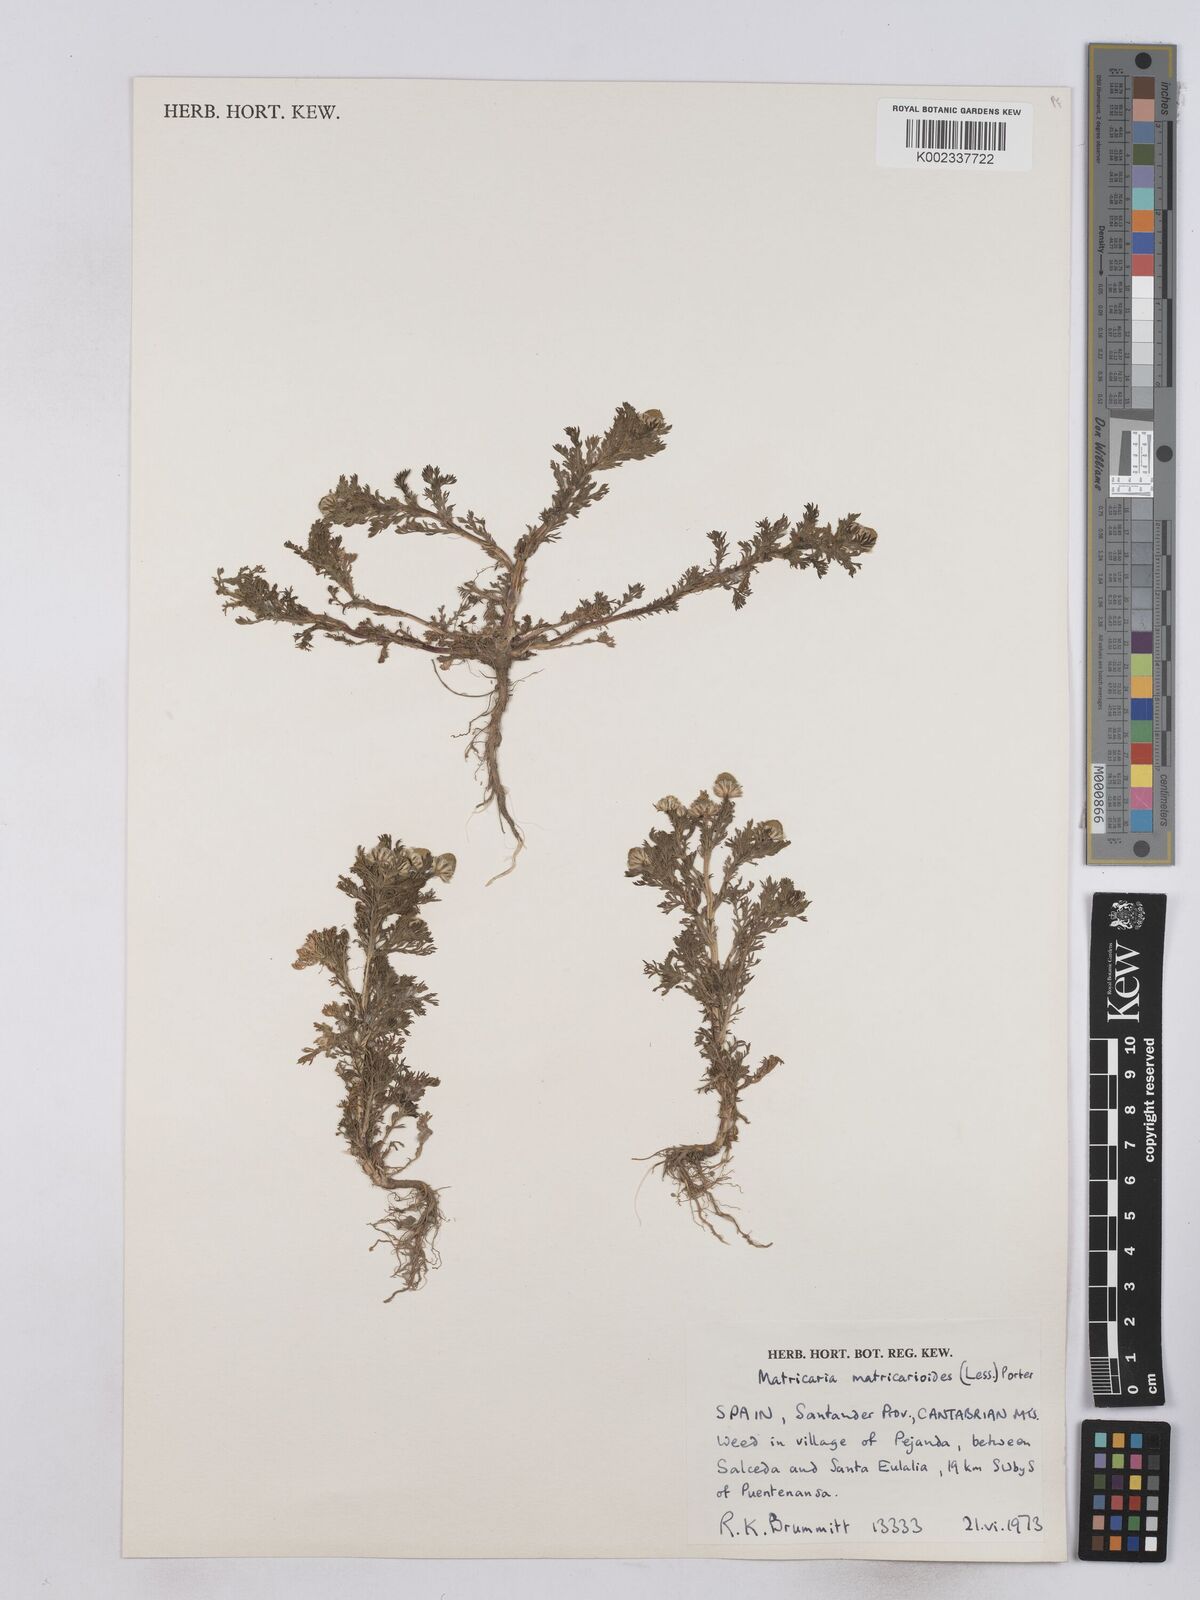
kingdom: Plantae
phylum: Tracheophyta
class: Magnoliopsida
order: Asterales
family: Asteraceae
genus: Matricaria
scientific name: Matricaria discoidea
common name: Disc mayweed
